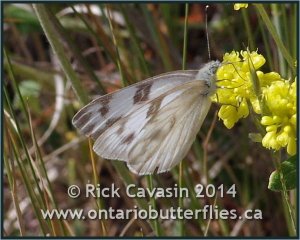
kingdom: Animalia
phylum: Arthropoda
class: Insecta
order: Lepidoptera
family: Pieridae
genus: Pontia
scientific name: Pontia protodice
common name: Checkered White
